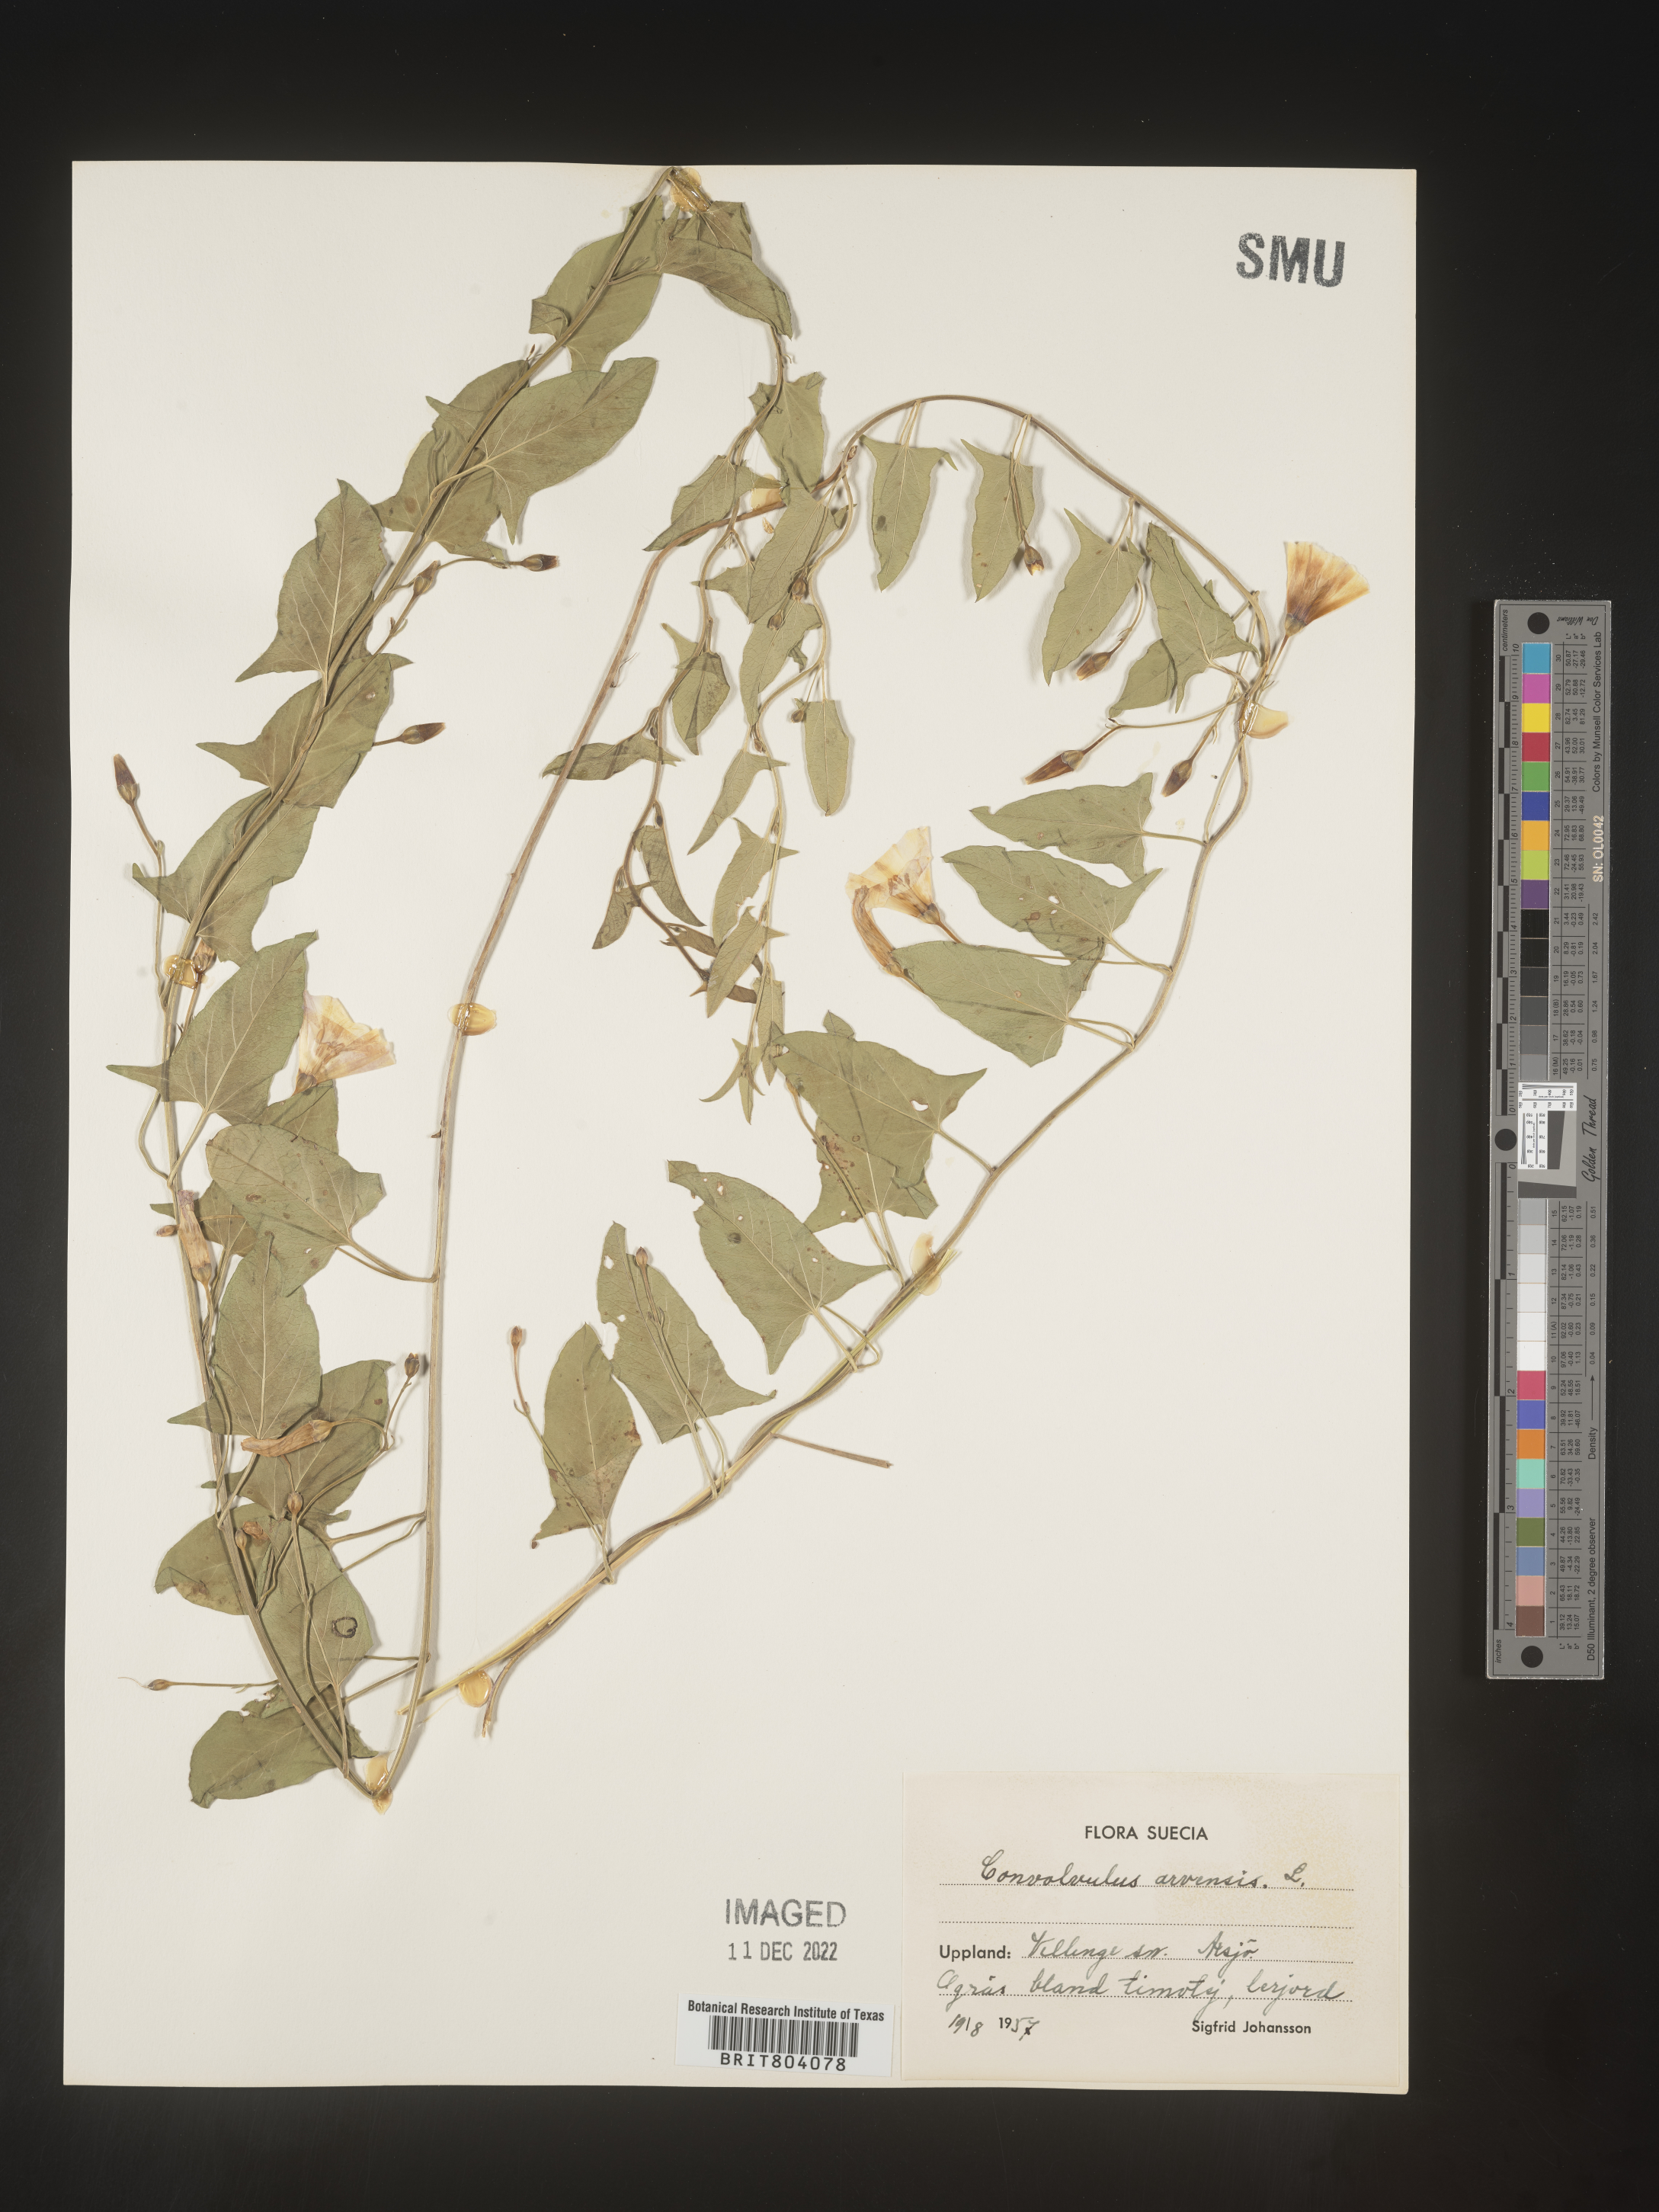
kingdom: Plantae
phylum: Tracheophyta
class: Magnoliopsida
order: Solanales
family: Convolvulaceae
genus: Convolvulus
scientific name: Convolvulus
